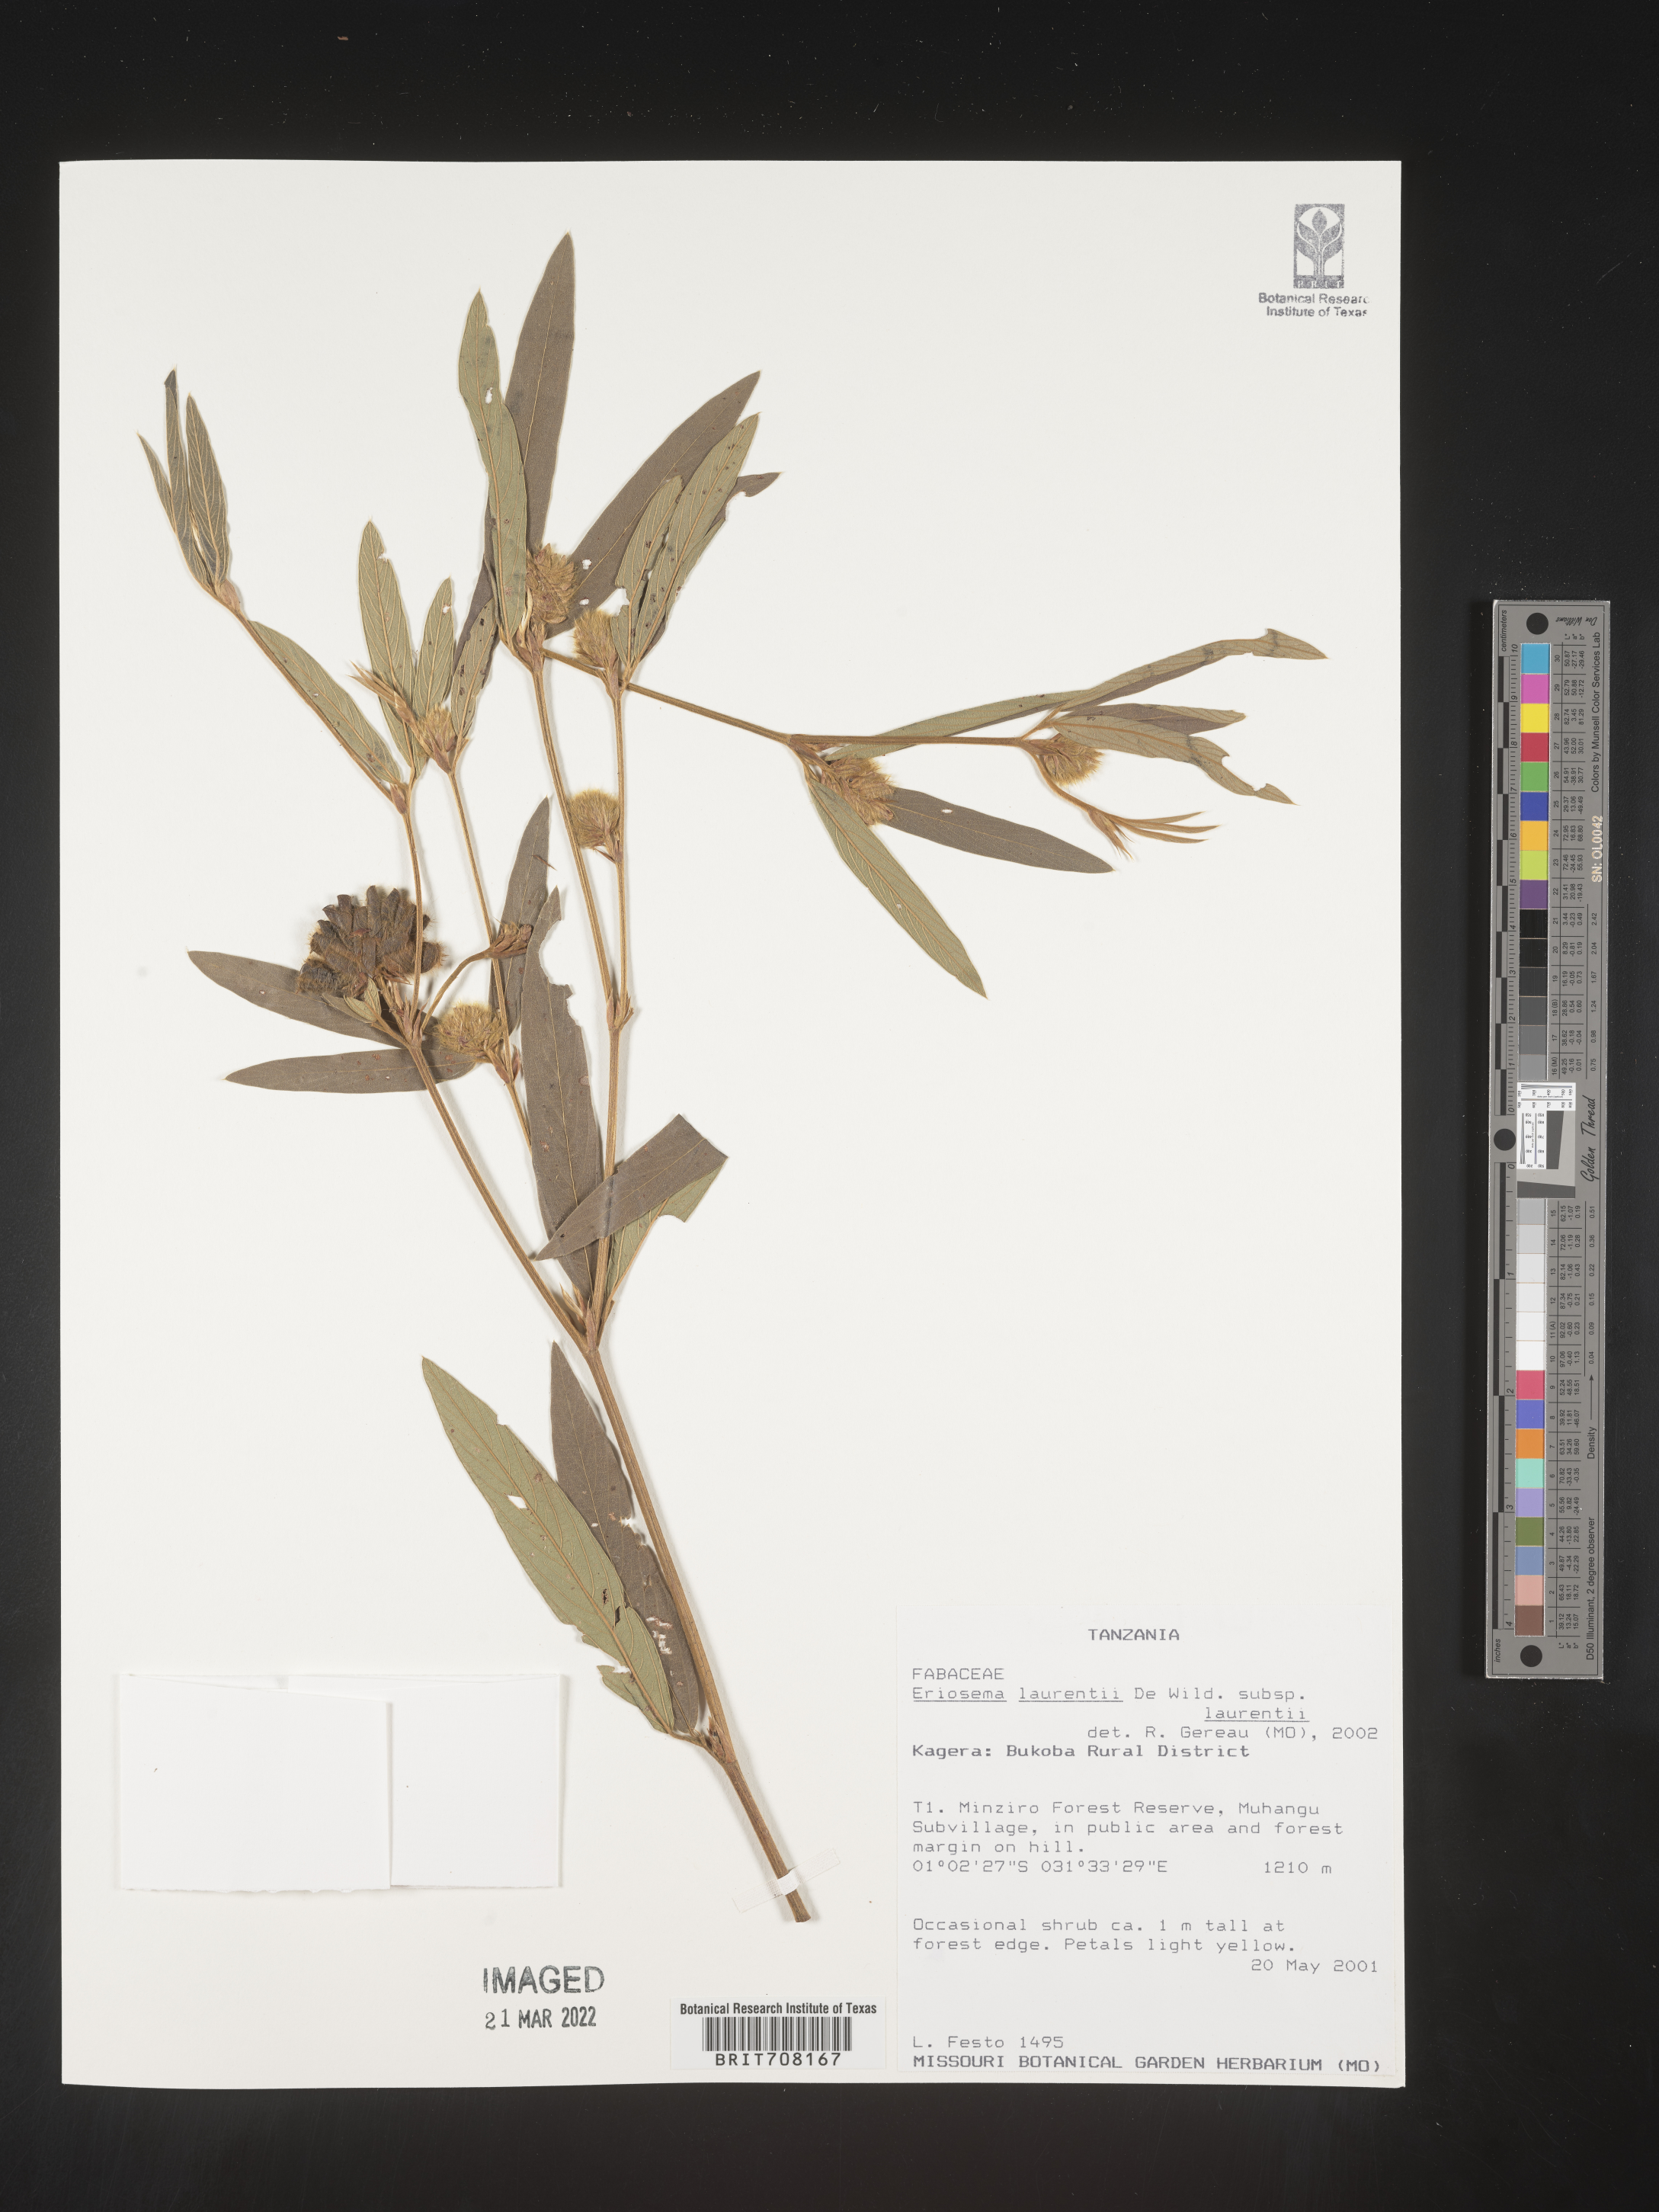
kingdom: Plantae
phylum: Tracheophyta
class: Magnoliopsida
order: Fabales
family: Fabaceae
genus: Eriosema
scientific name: Eriosema
